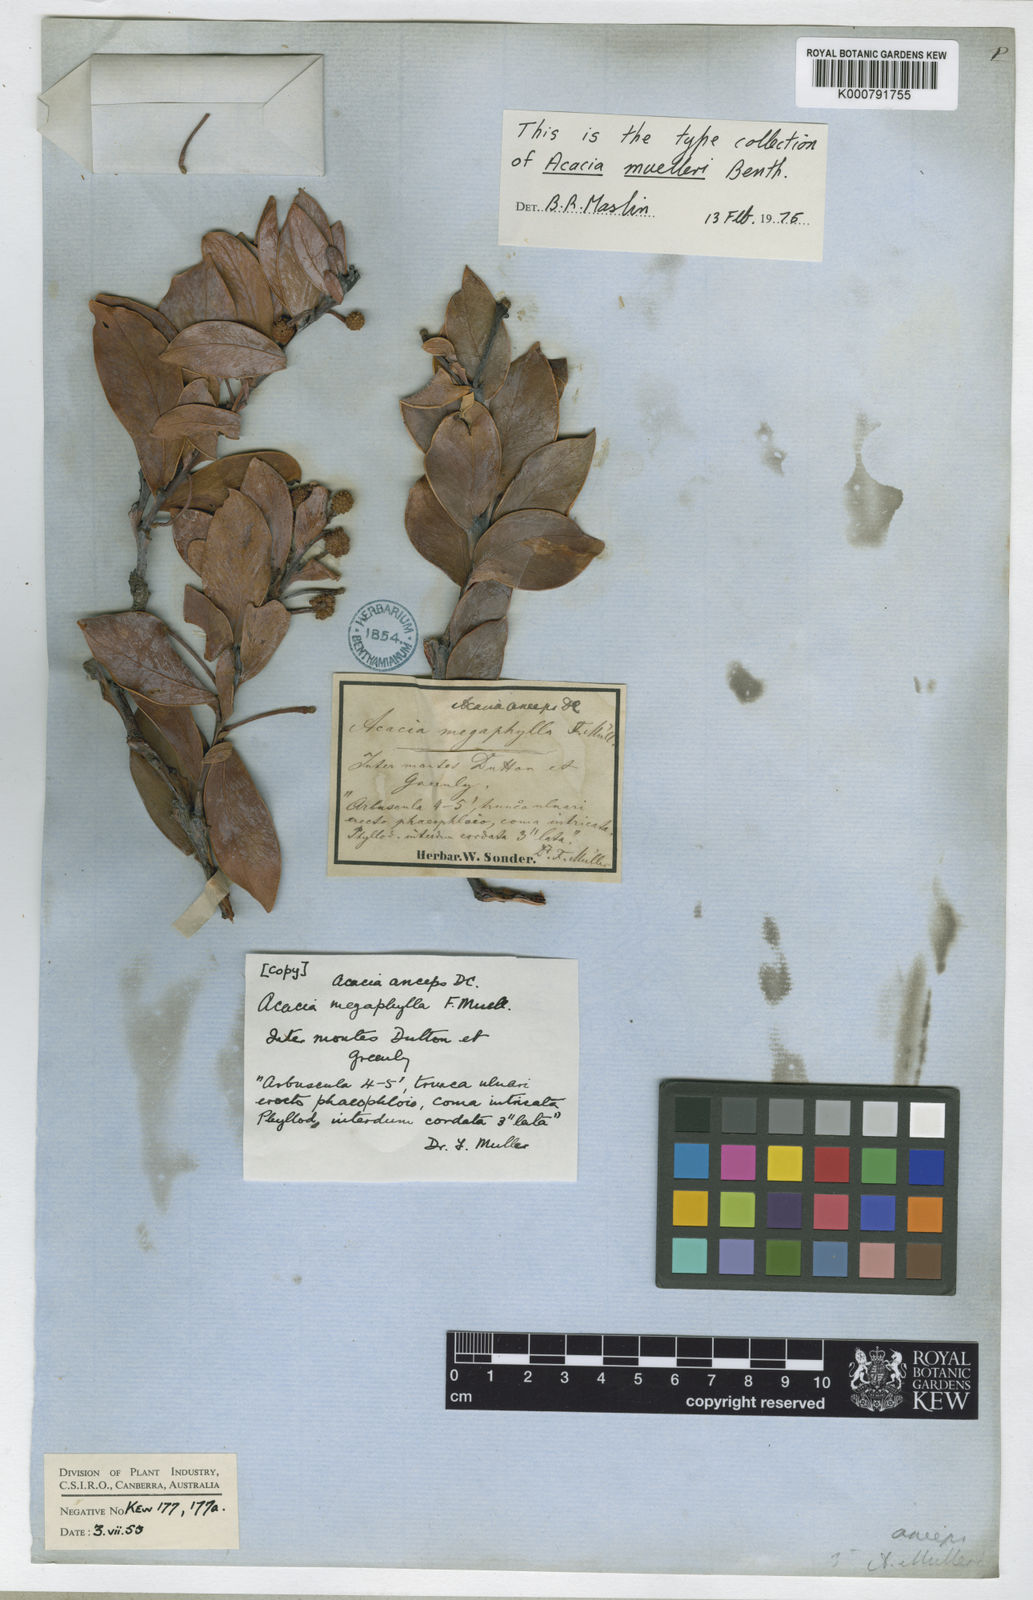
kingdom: Plantae
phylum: Tracheophyta
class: Magnoliopsida
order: Fabales
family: Fabaceae
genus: Acacia
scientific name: Acacia anceps
